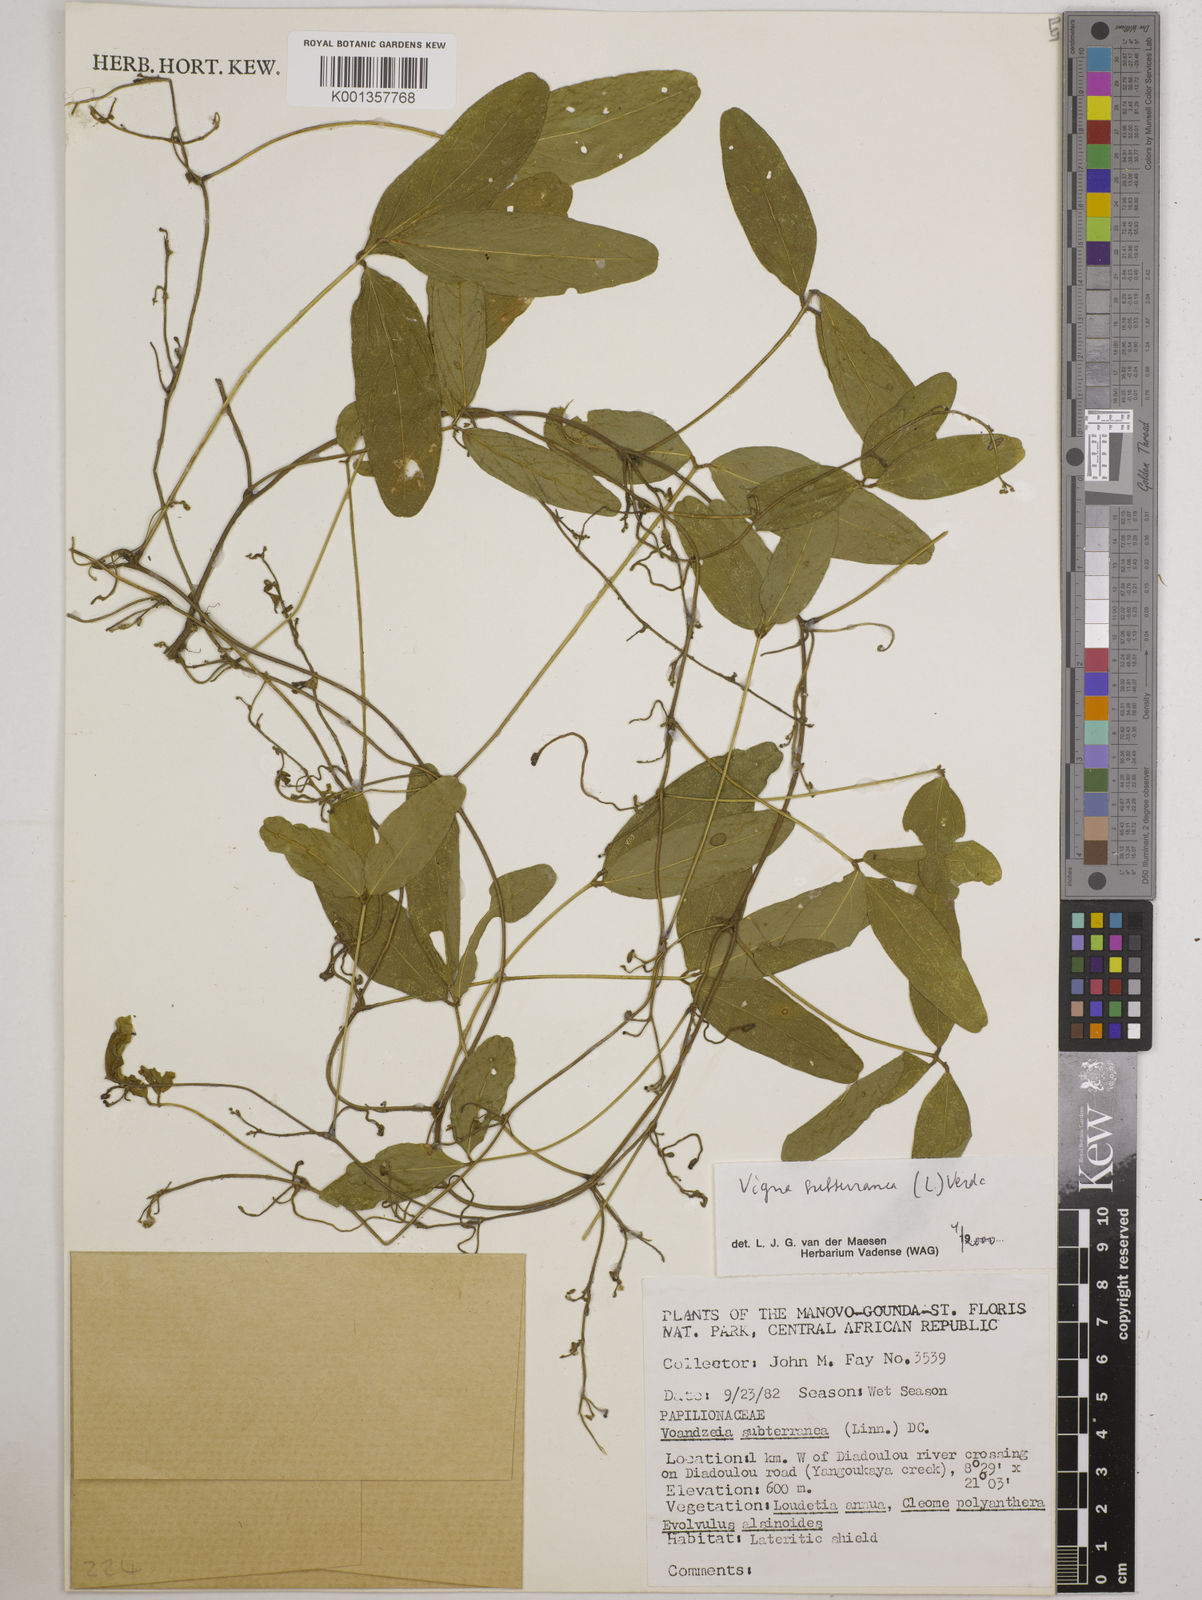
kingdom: Plantae
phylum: Tracheophyta
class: Magnoliopsida
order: Fabales
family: Fabaceae
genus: Vigna
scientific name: Vigna subterranea
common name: Bambara groundnut
